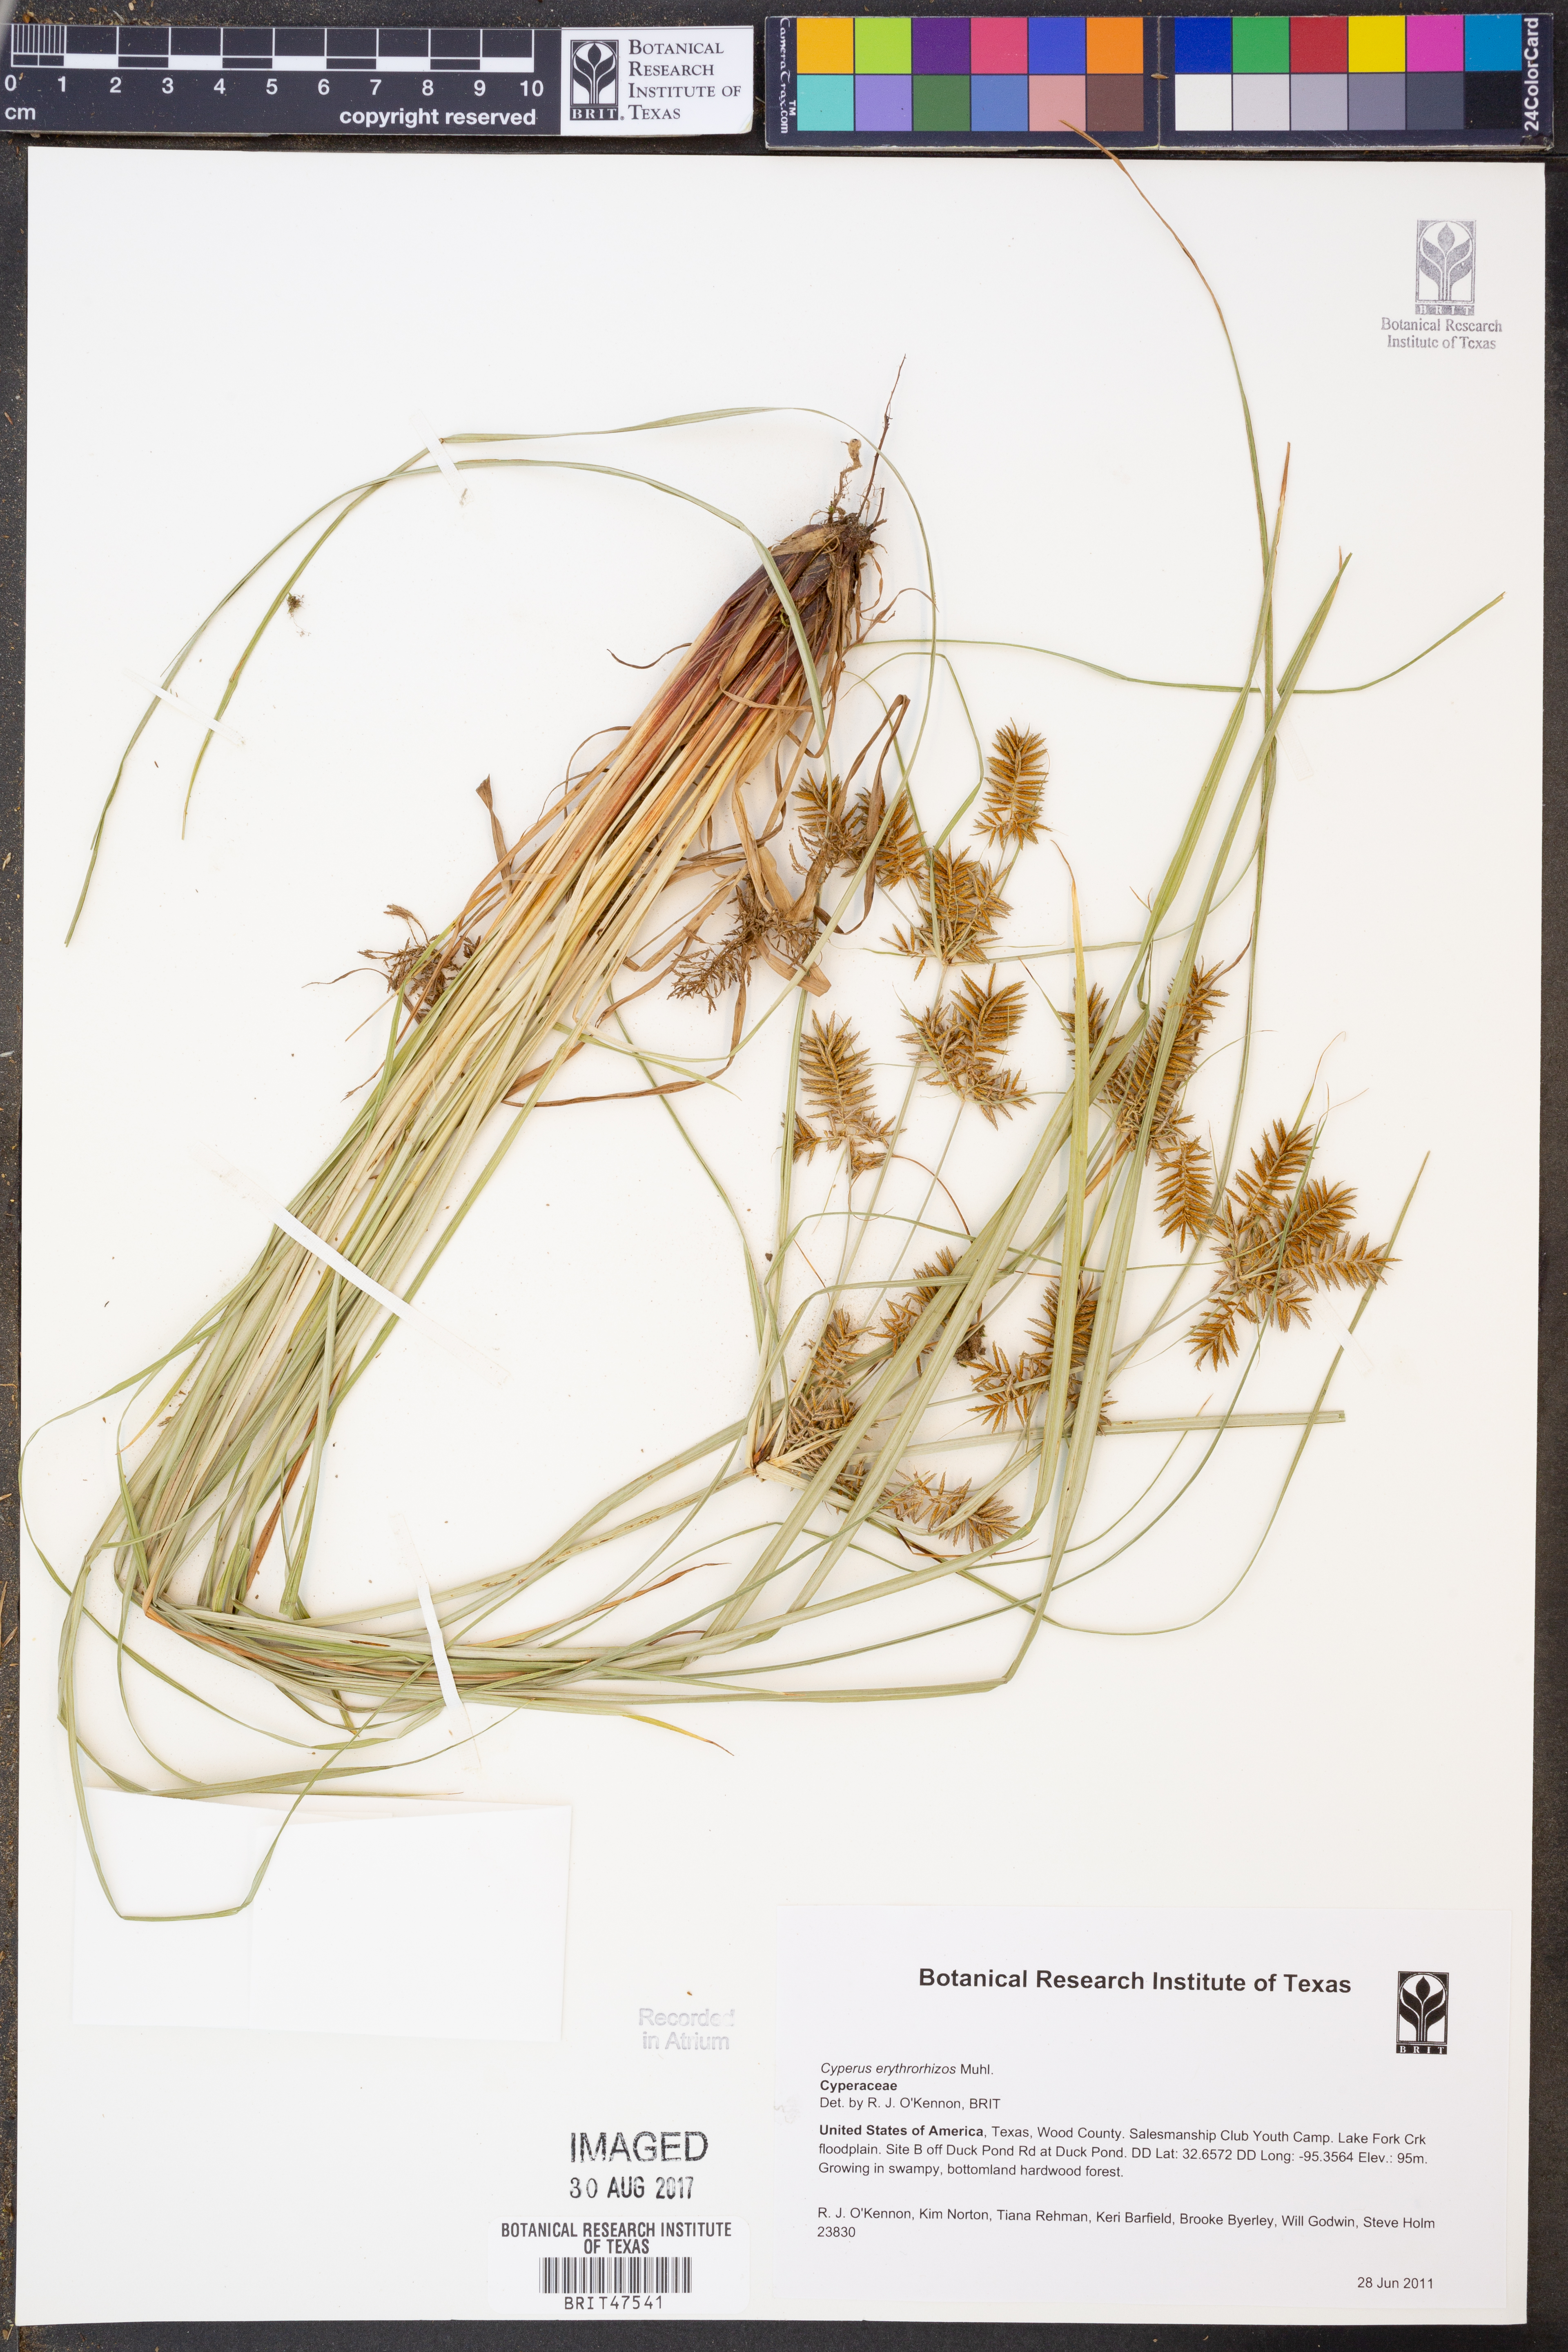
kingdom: Plantae
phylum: Tracheophyta
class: Liliopsida
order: Poales
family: Cyperaceae
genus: Cyperus
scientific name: Cyperus erythrorhizos
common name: Red-root flat sedge
